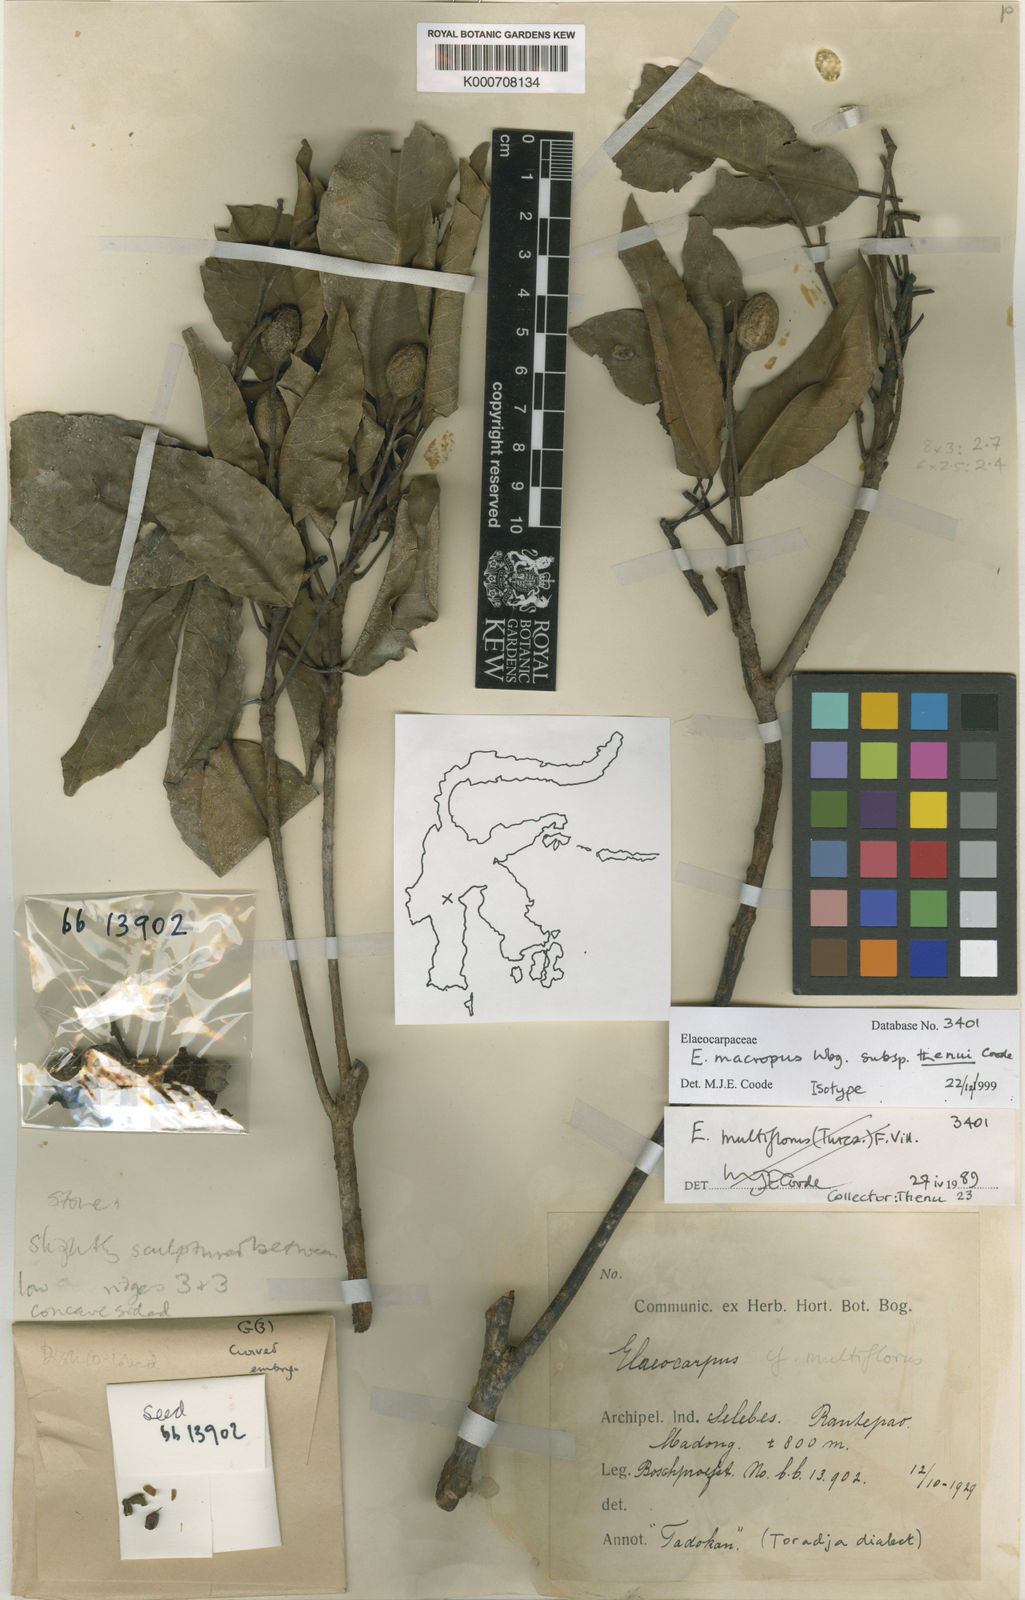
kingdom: Plantae
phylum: Tracheophyta
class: Magnoliopsida
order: Oxalidales
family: Elaeocarpaceae
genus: Elaeocarpus
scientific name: Elaeocarpus macropus
